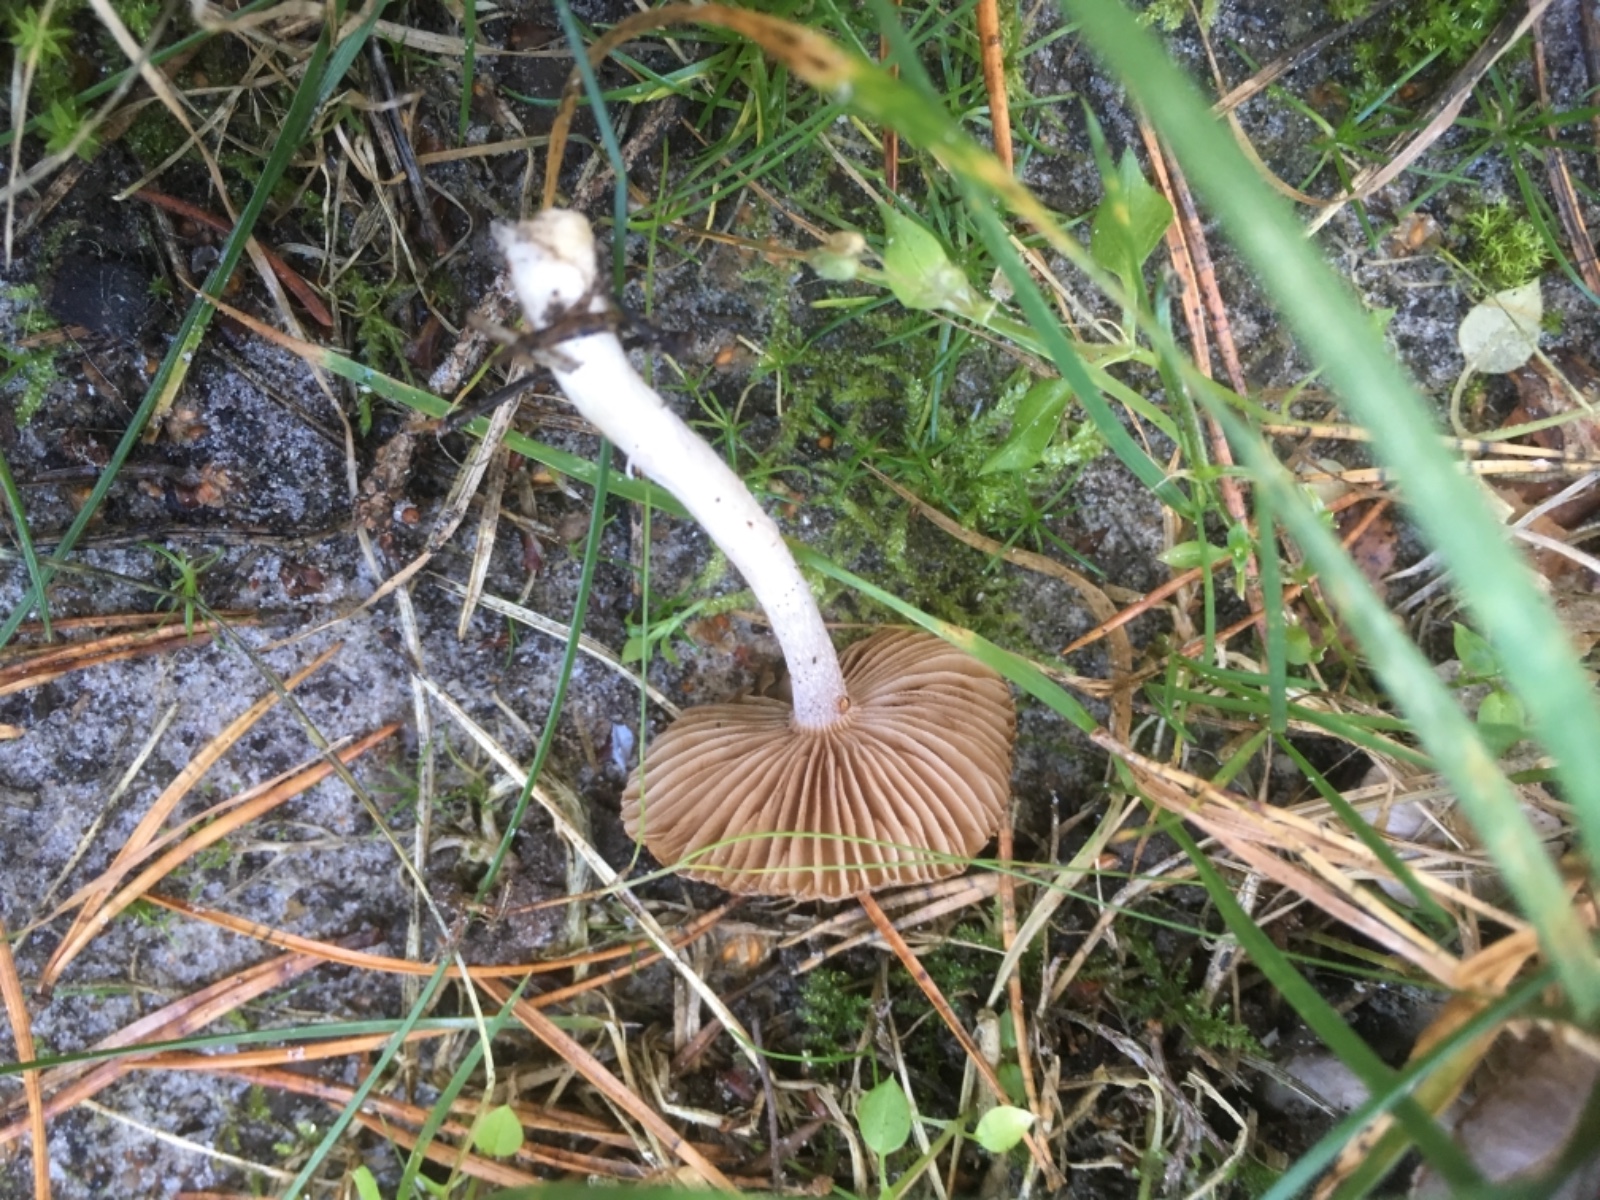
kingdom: Fungi
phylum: Basidiomycota
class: Agaricomycetes
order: Agaricales
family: Inocybaceae
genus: Inocybe
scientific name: Inocybe
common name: trævlhat
